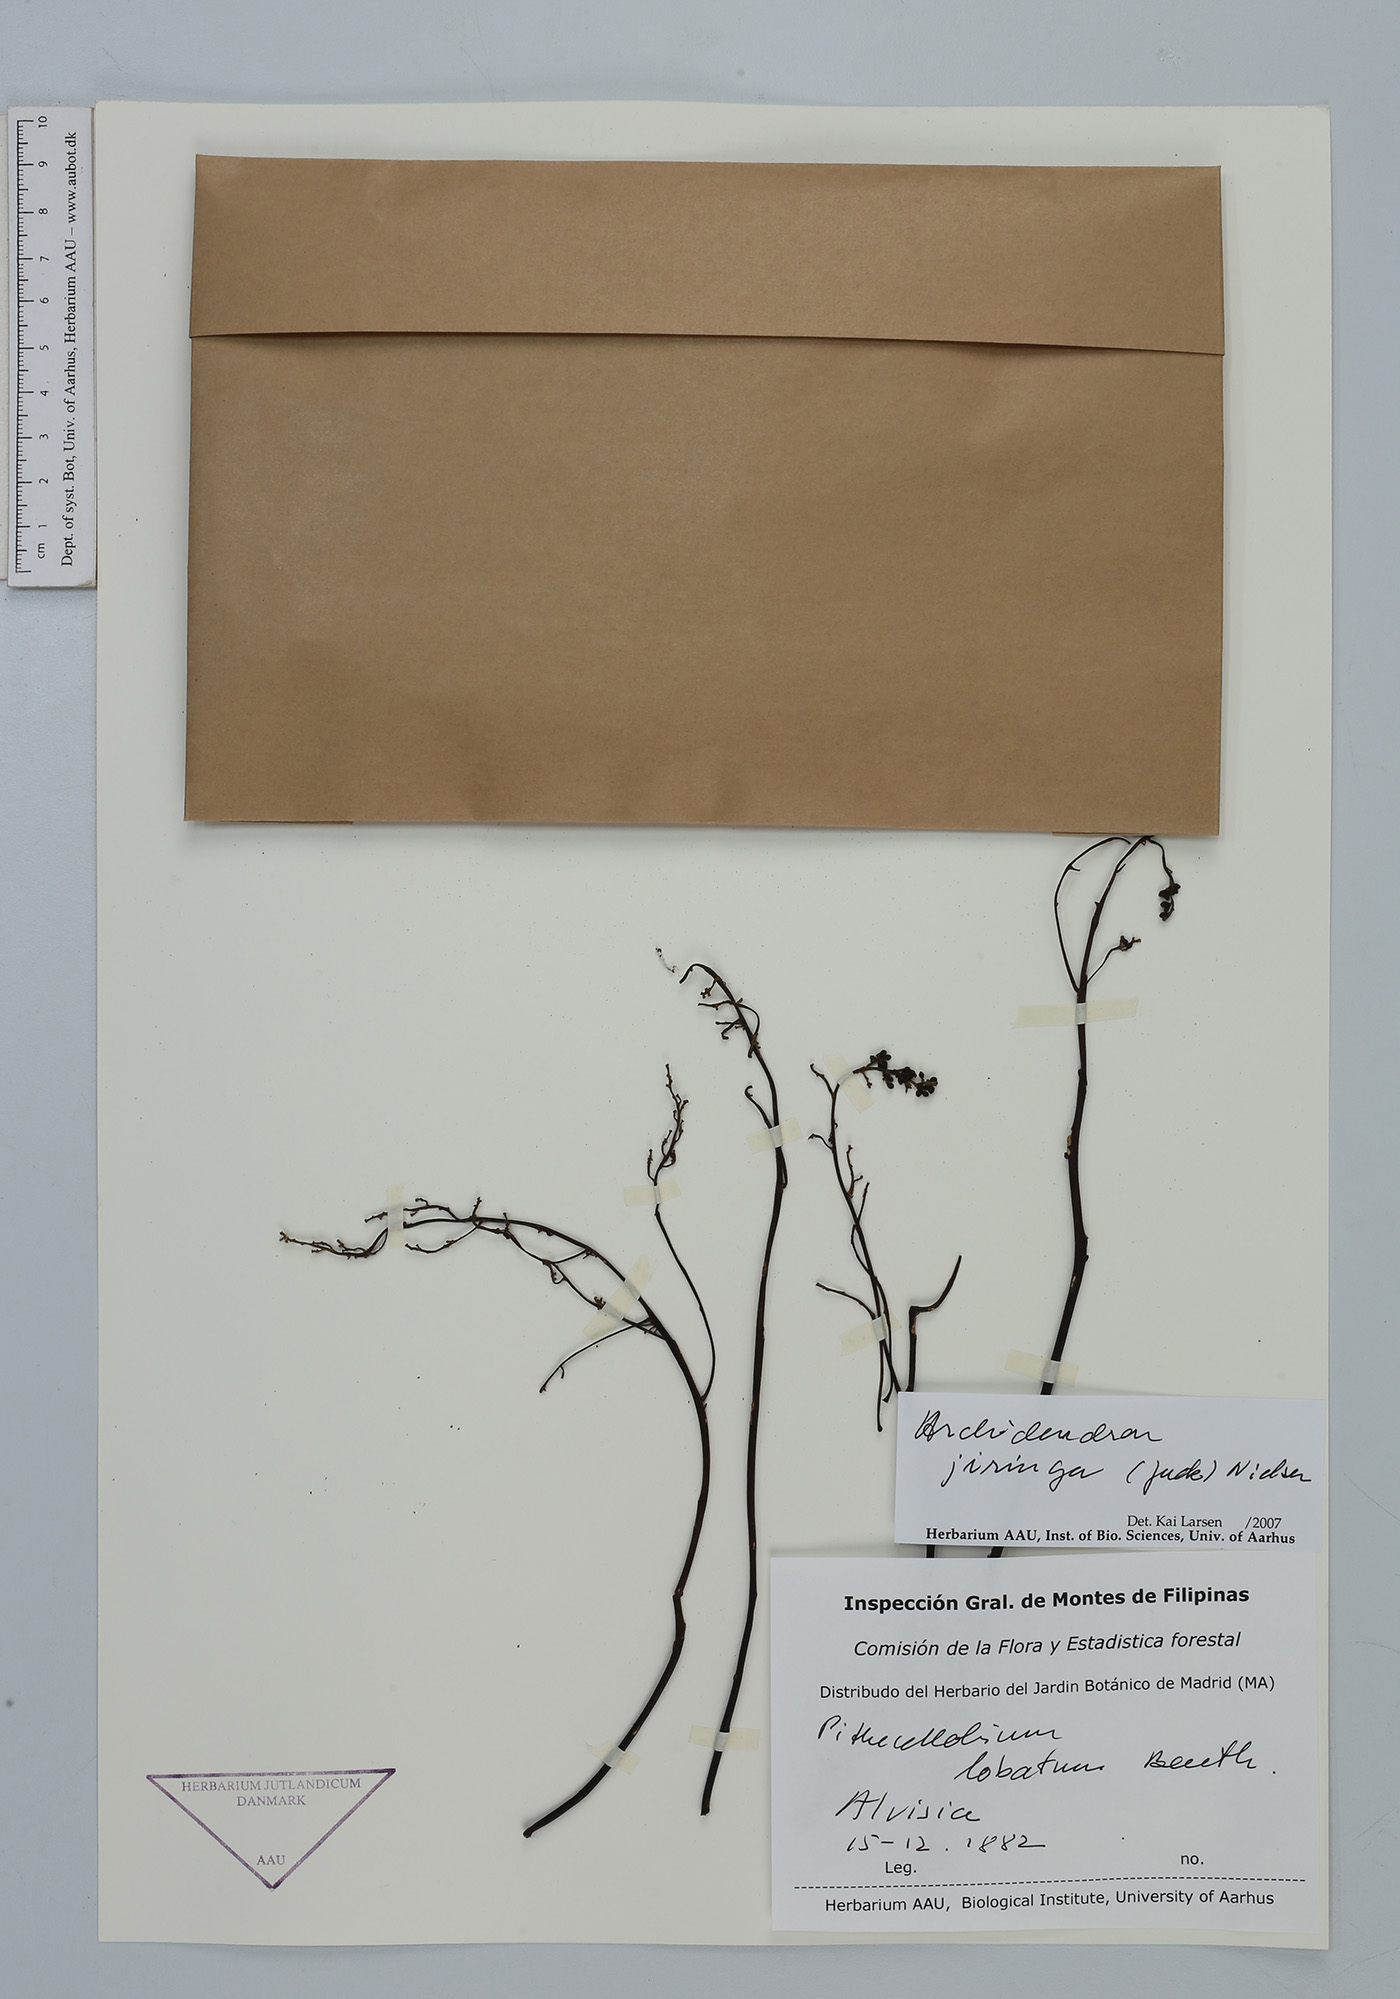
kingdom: Plantae
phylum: Tracheophyta
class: Magnoliopsida
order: Fabales
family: Fabaceae
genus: Archidendron
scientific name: Archidendron jiringa
